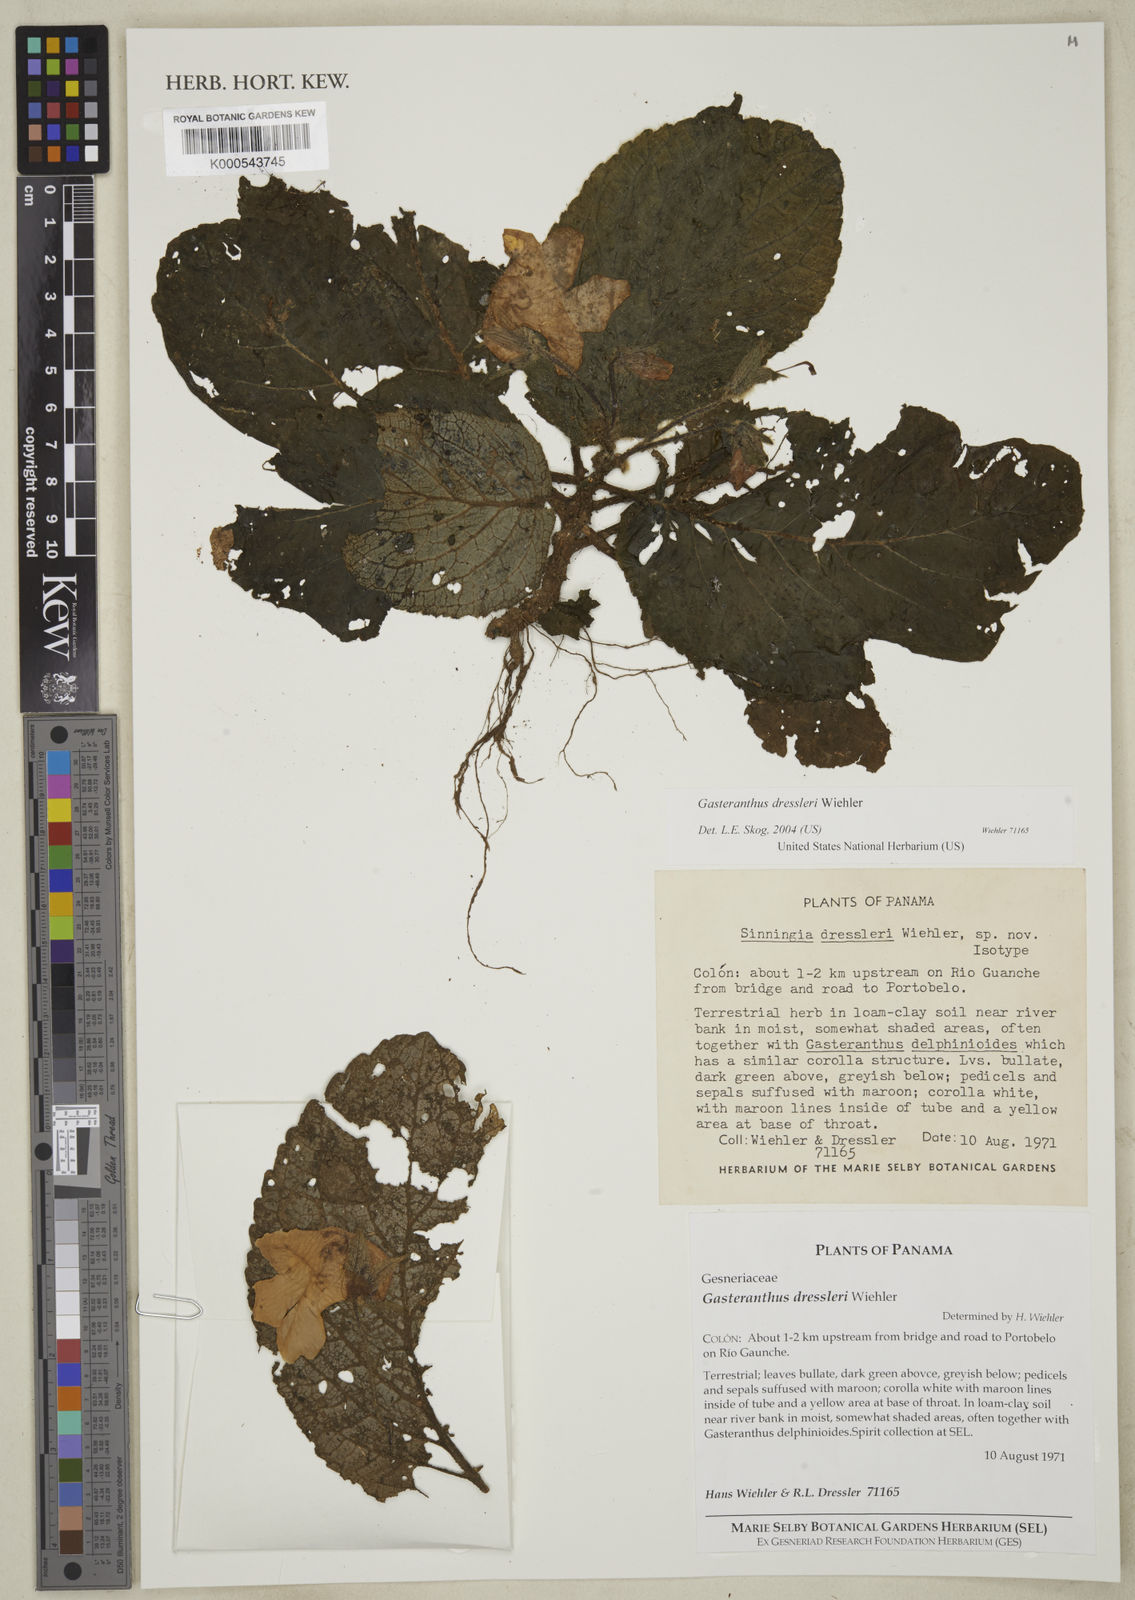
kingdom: Plantae
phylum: Tracheophyta
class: Magnoliopsida
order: Lamiales
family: Gesneriaceae
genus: Gasteranthus
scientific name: Gasteranthus dressleri
